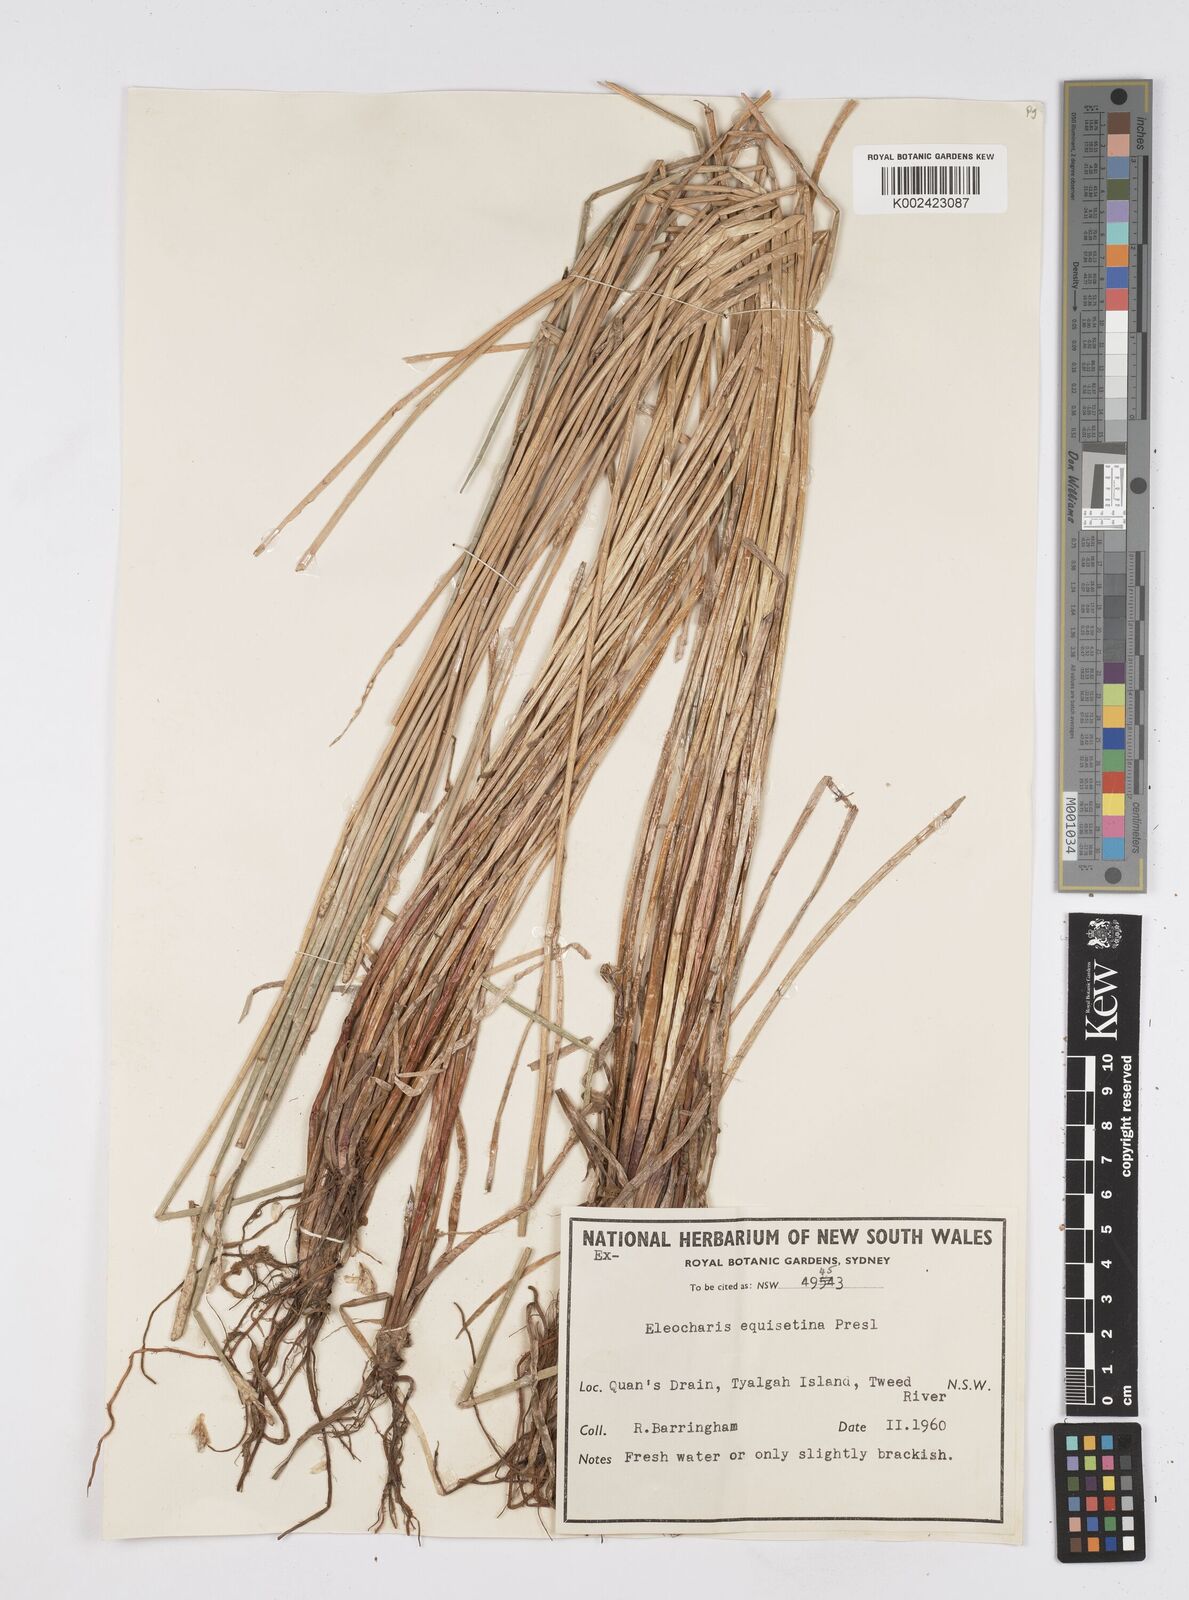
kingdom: Plantae
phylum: Tracheophyta
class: Liliopsida
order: Poales
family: Cyperaceae
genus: Eleocharis
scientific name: Eleocharis dulcis
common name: Chinese water chestnut
